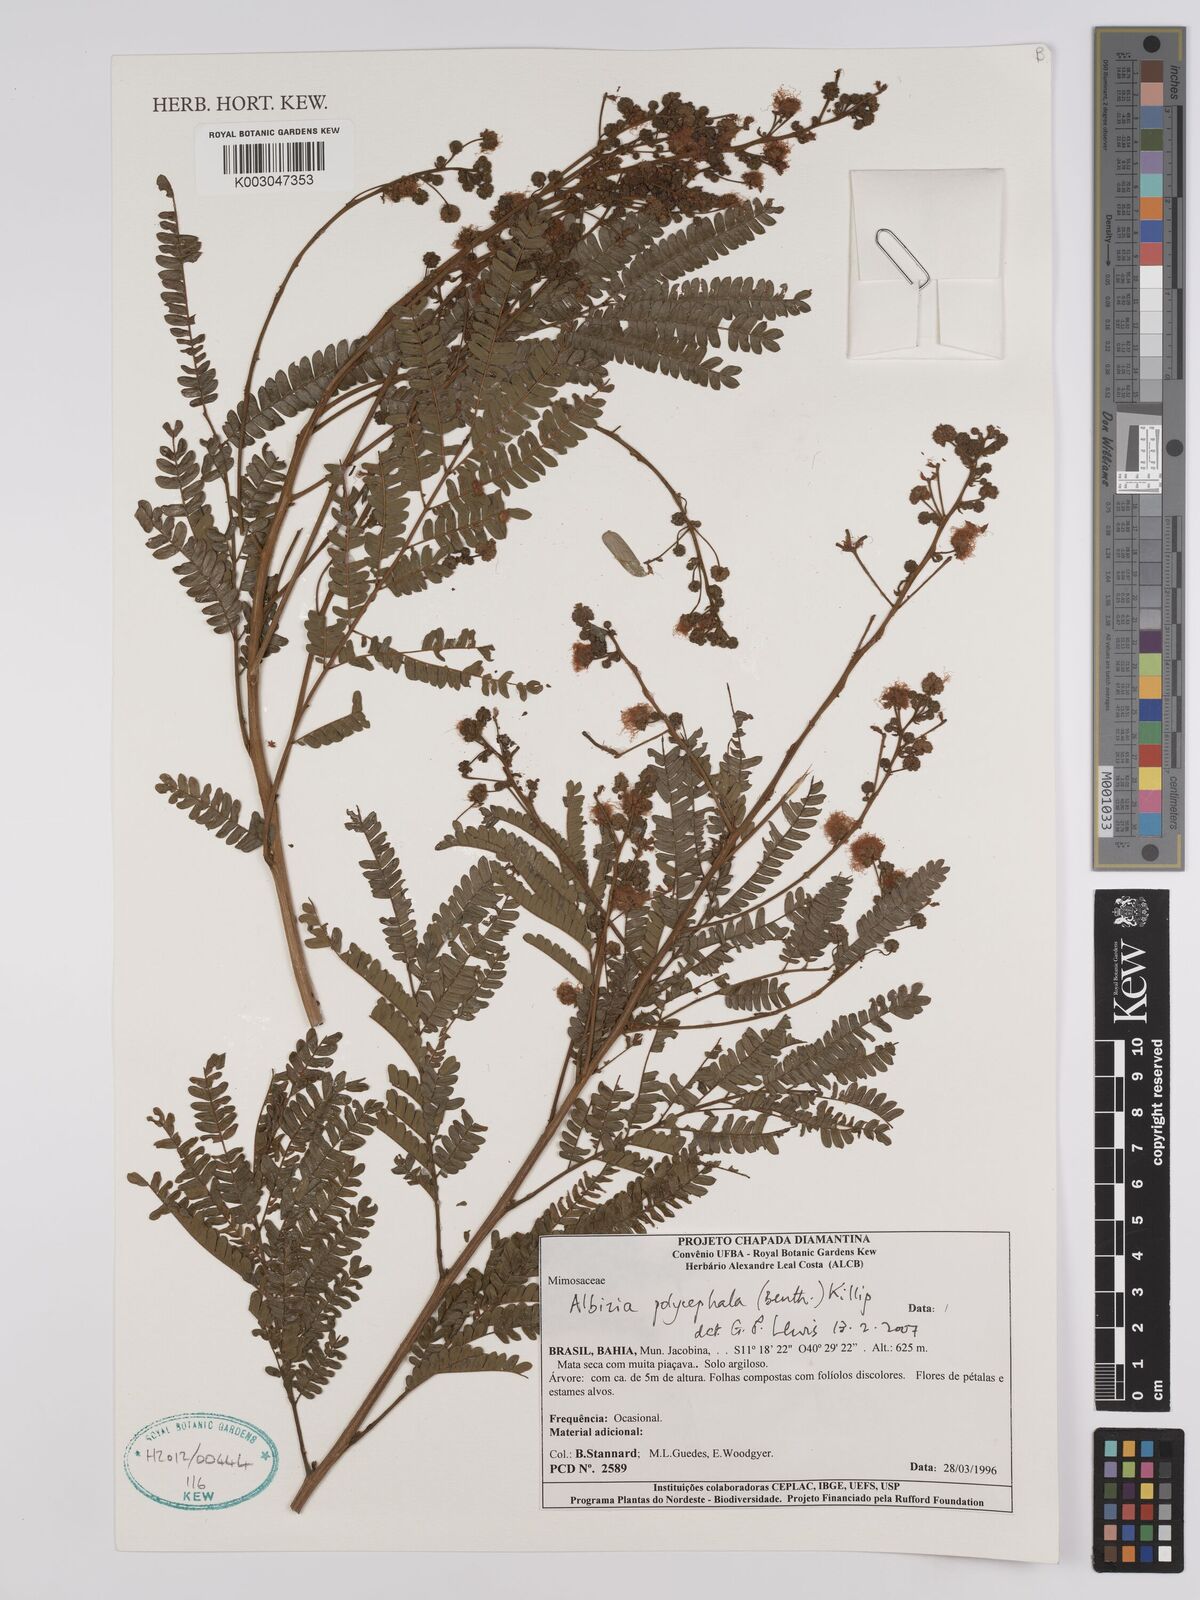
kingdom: Plantae
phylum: Tracheophyta
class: Magnoliopsida
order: Fabales
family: Fabaceae
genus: Albizia
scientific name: Albizia polycephala
